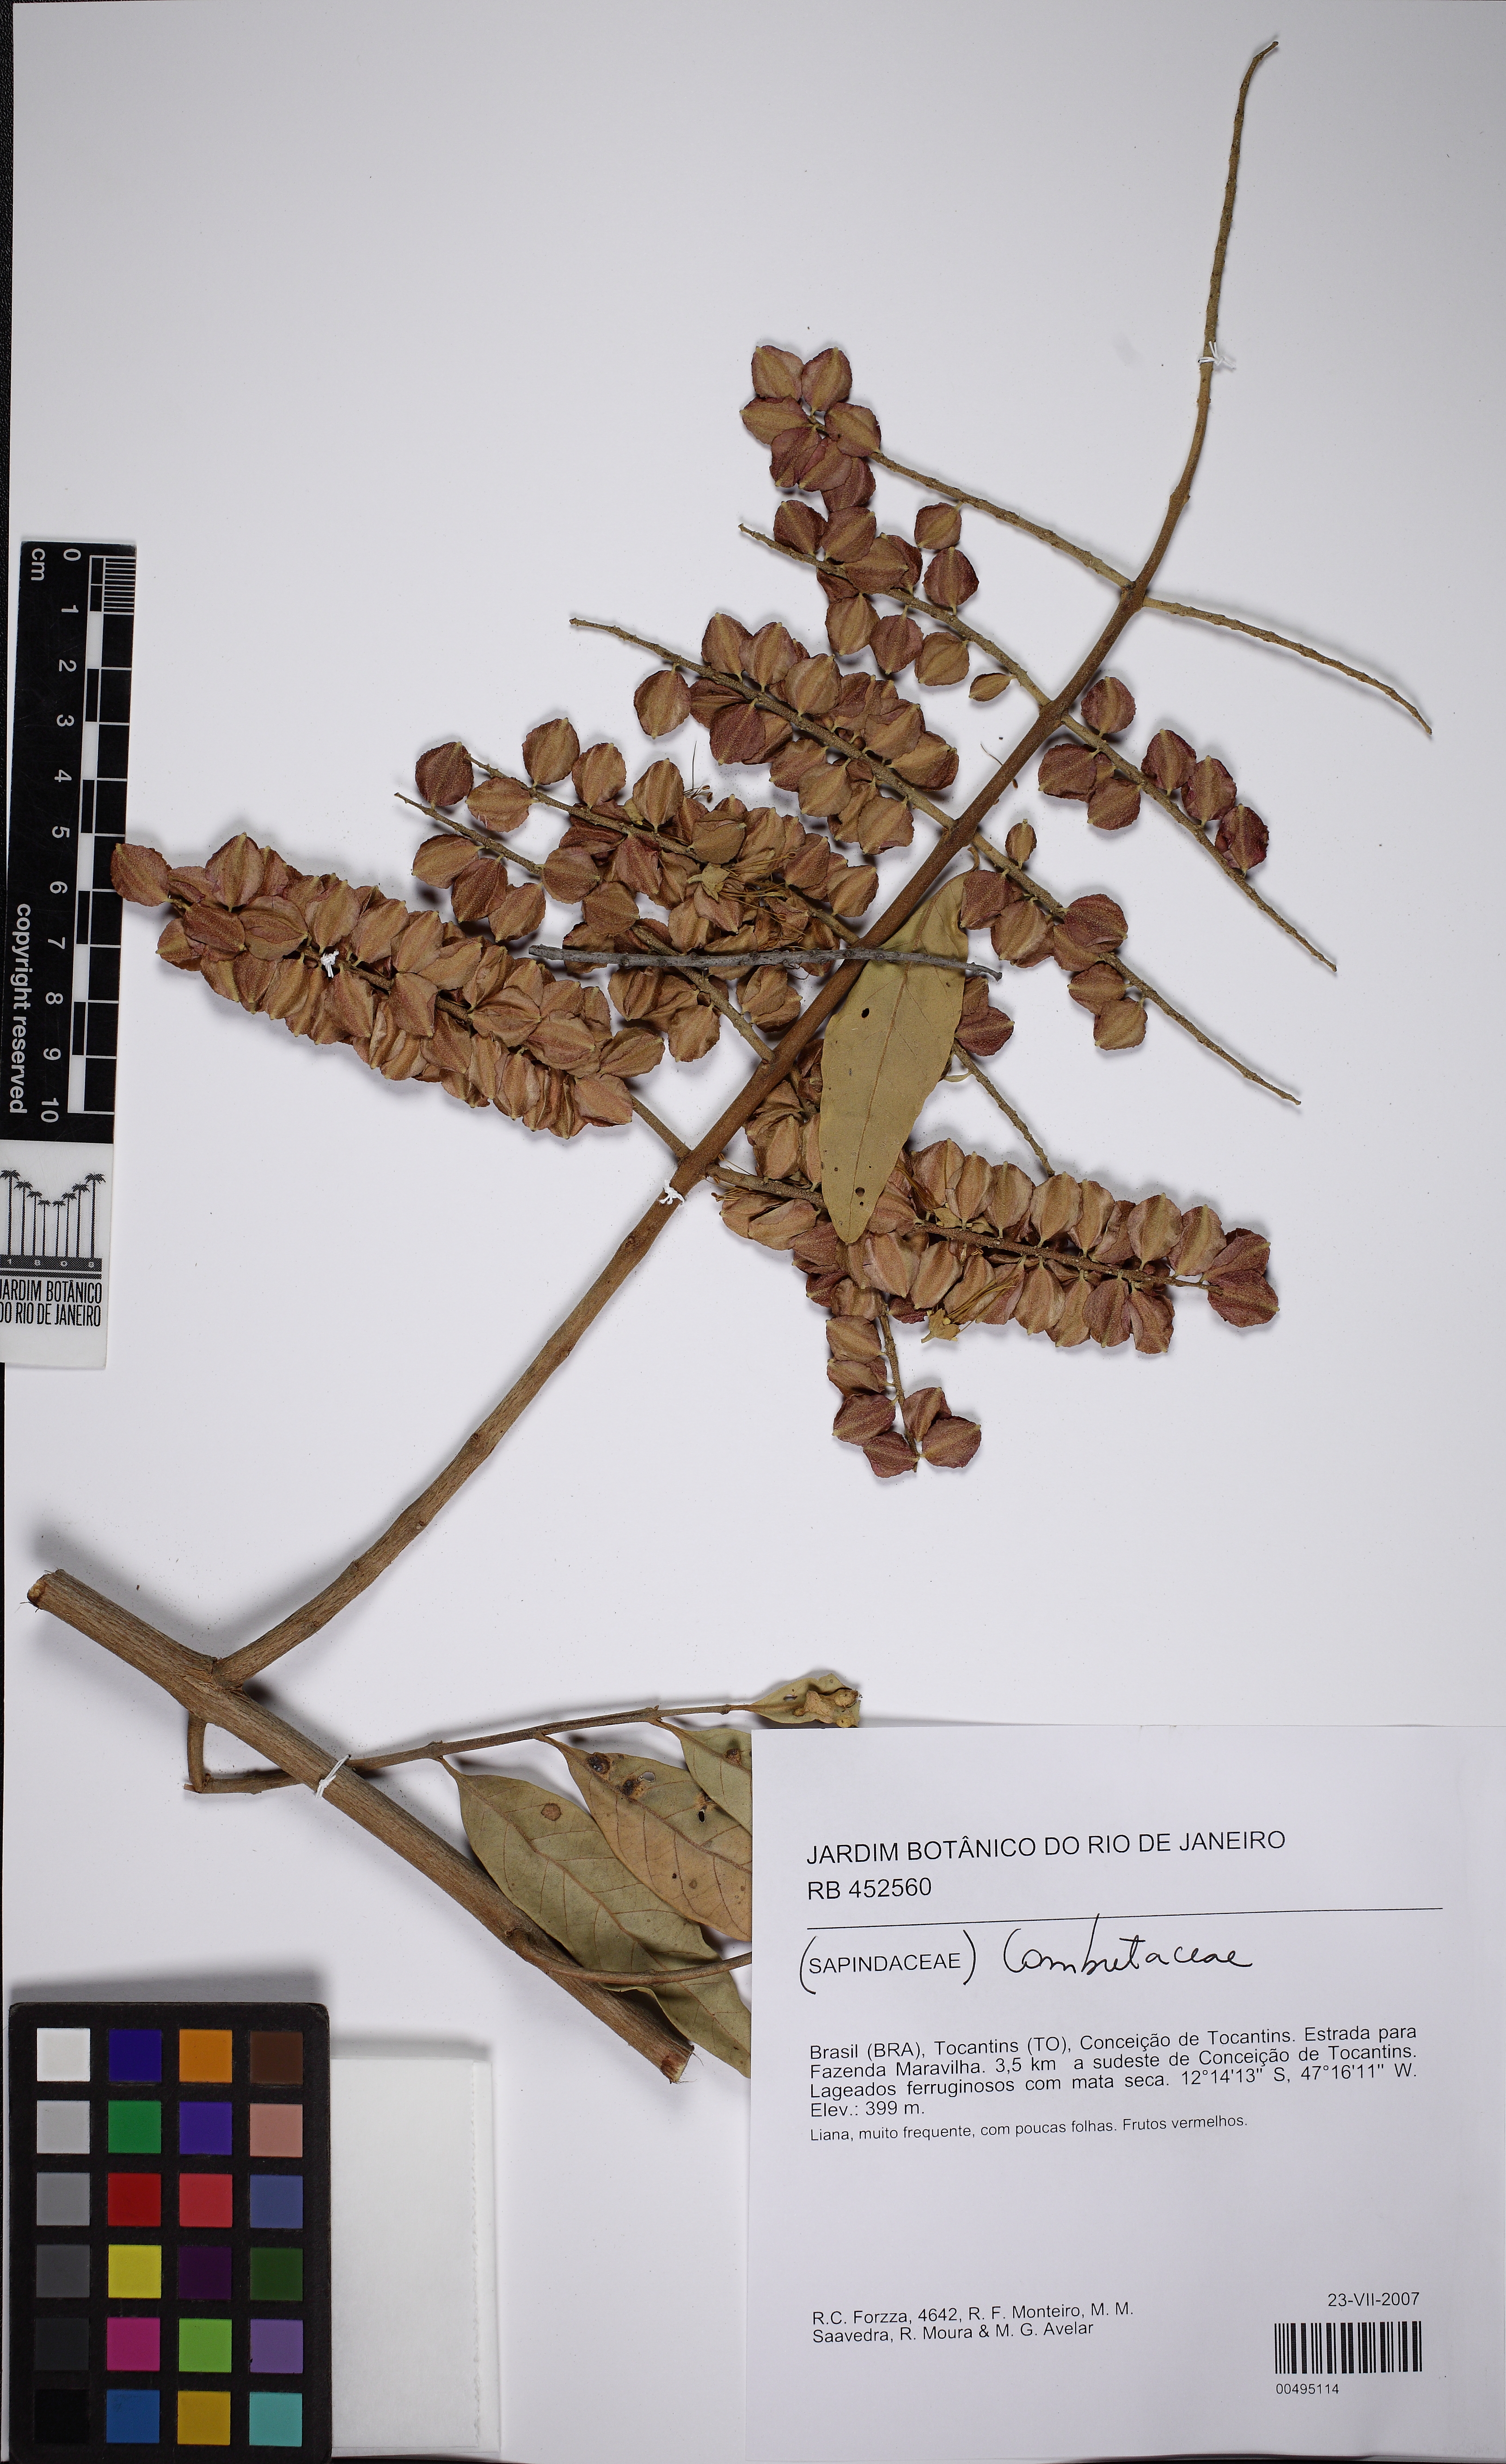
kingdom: Plantae
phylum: Tracheophyta
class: Magnoliopsida
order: Myrtales
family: Combretaceae
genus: Combretum
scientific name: Combretum lanceolatum
